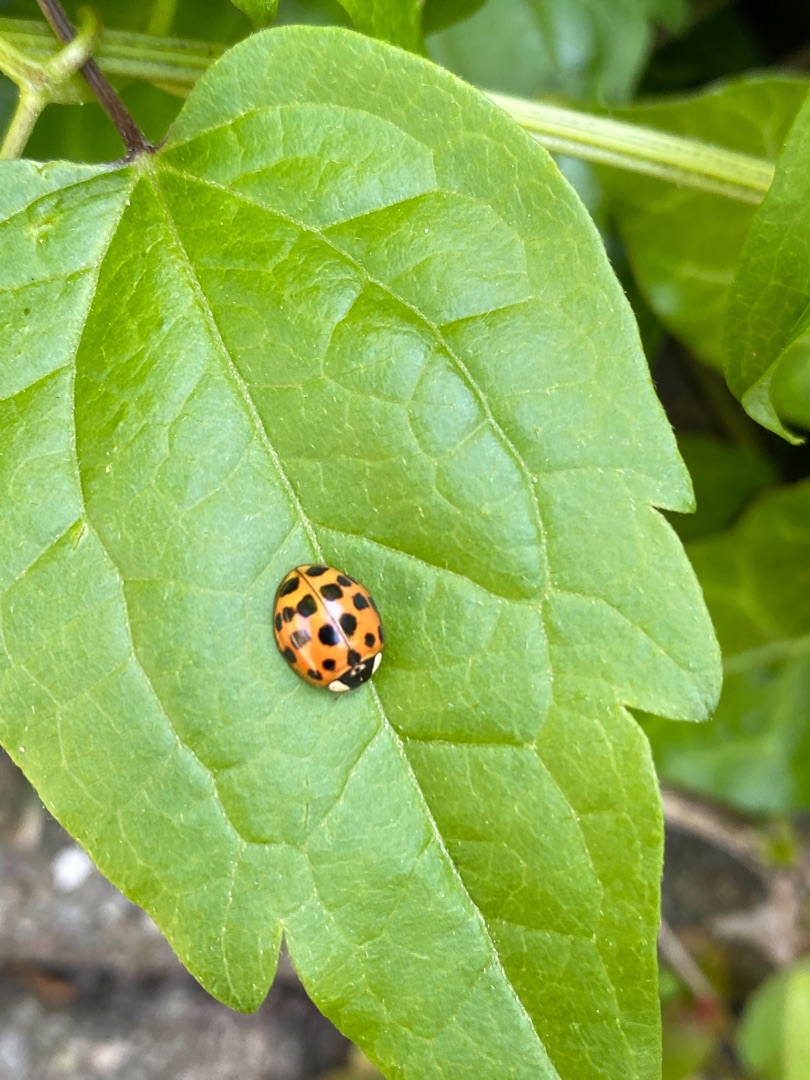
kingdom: Animalia
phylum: Arthropoda
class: Insecta
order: Coleoptera
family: Coccinellidae
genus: Harmonia
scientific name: Harmonia axyridis
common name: Harlekinmariehøne
